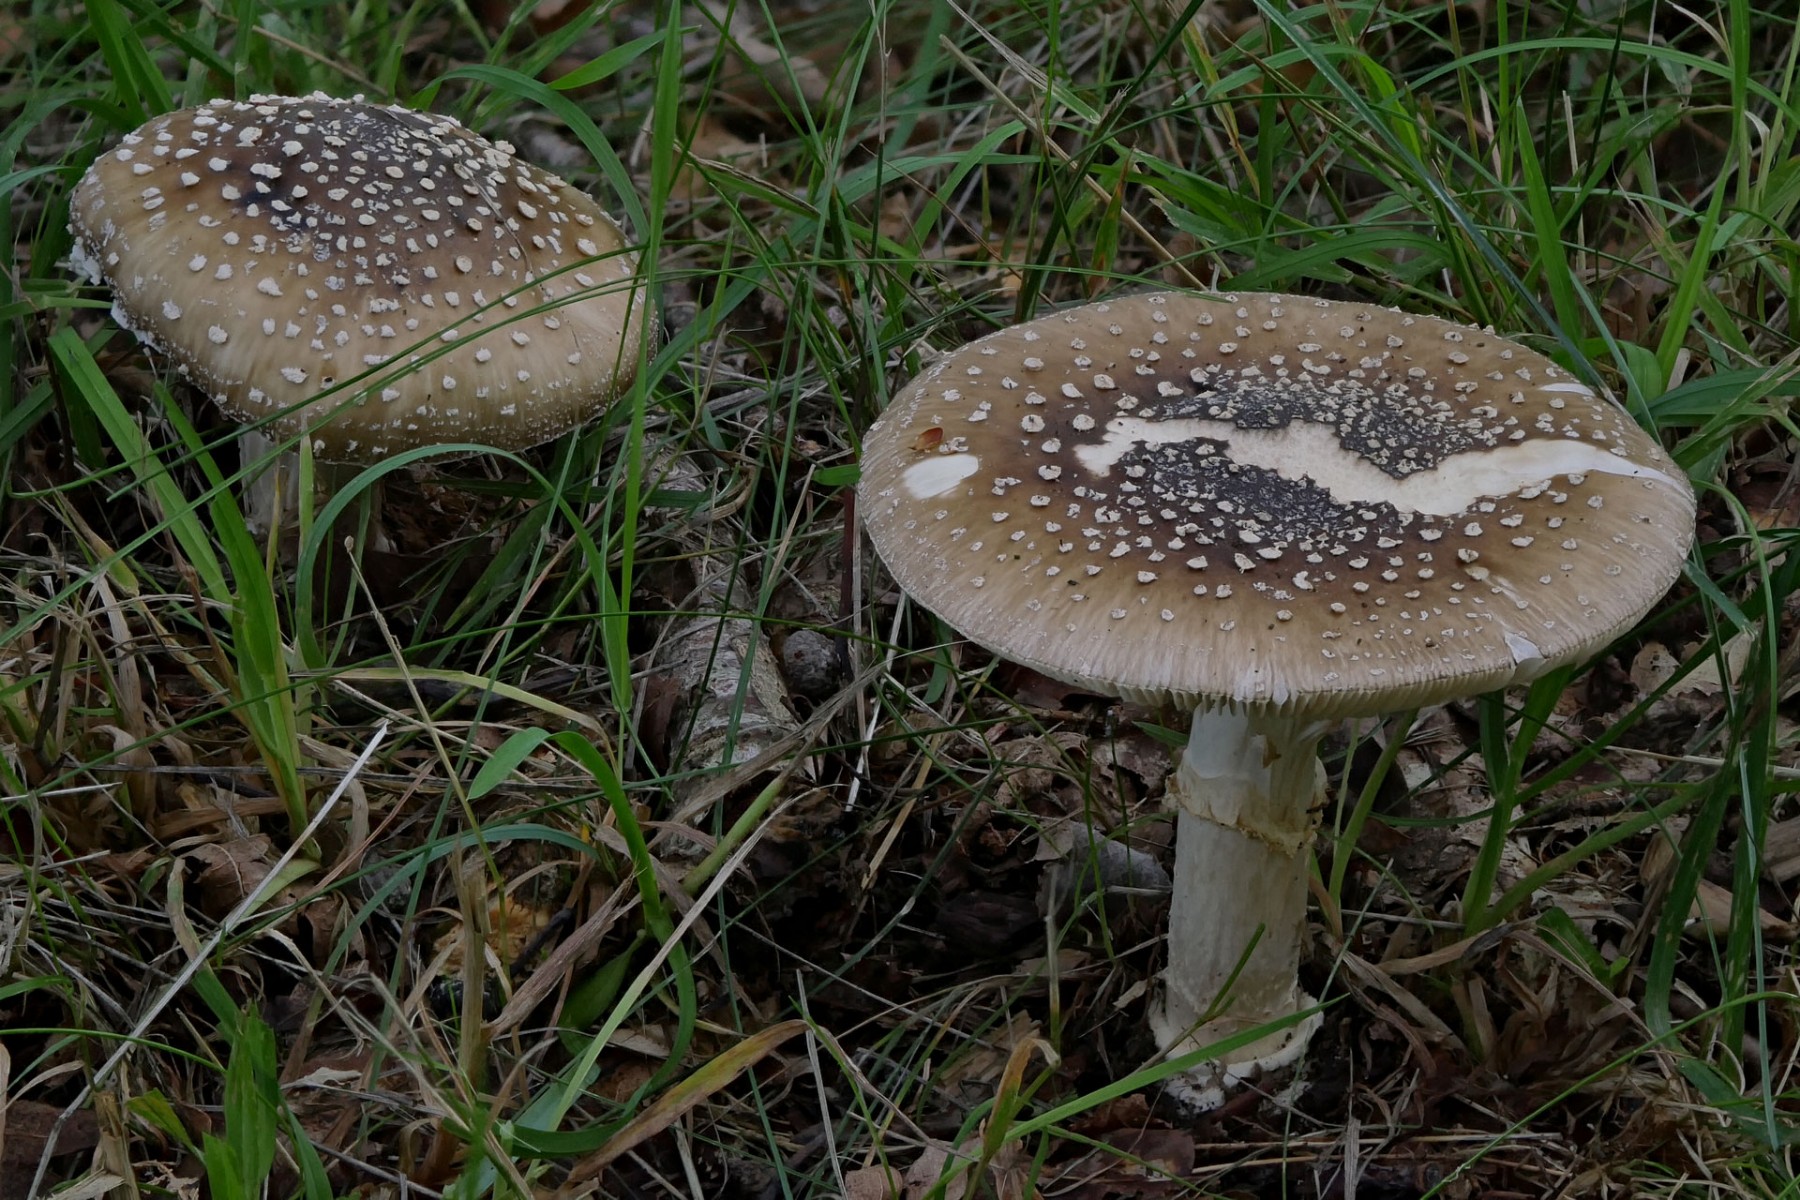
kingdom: Fungi
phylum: Basidiomycota
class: Agaricomycetes
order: Agaricales
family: Amanitaceae
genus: Amanita
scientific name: Amanita pantherina
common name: panter-fluesvamp
